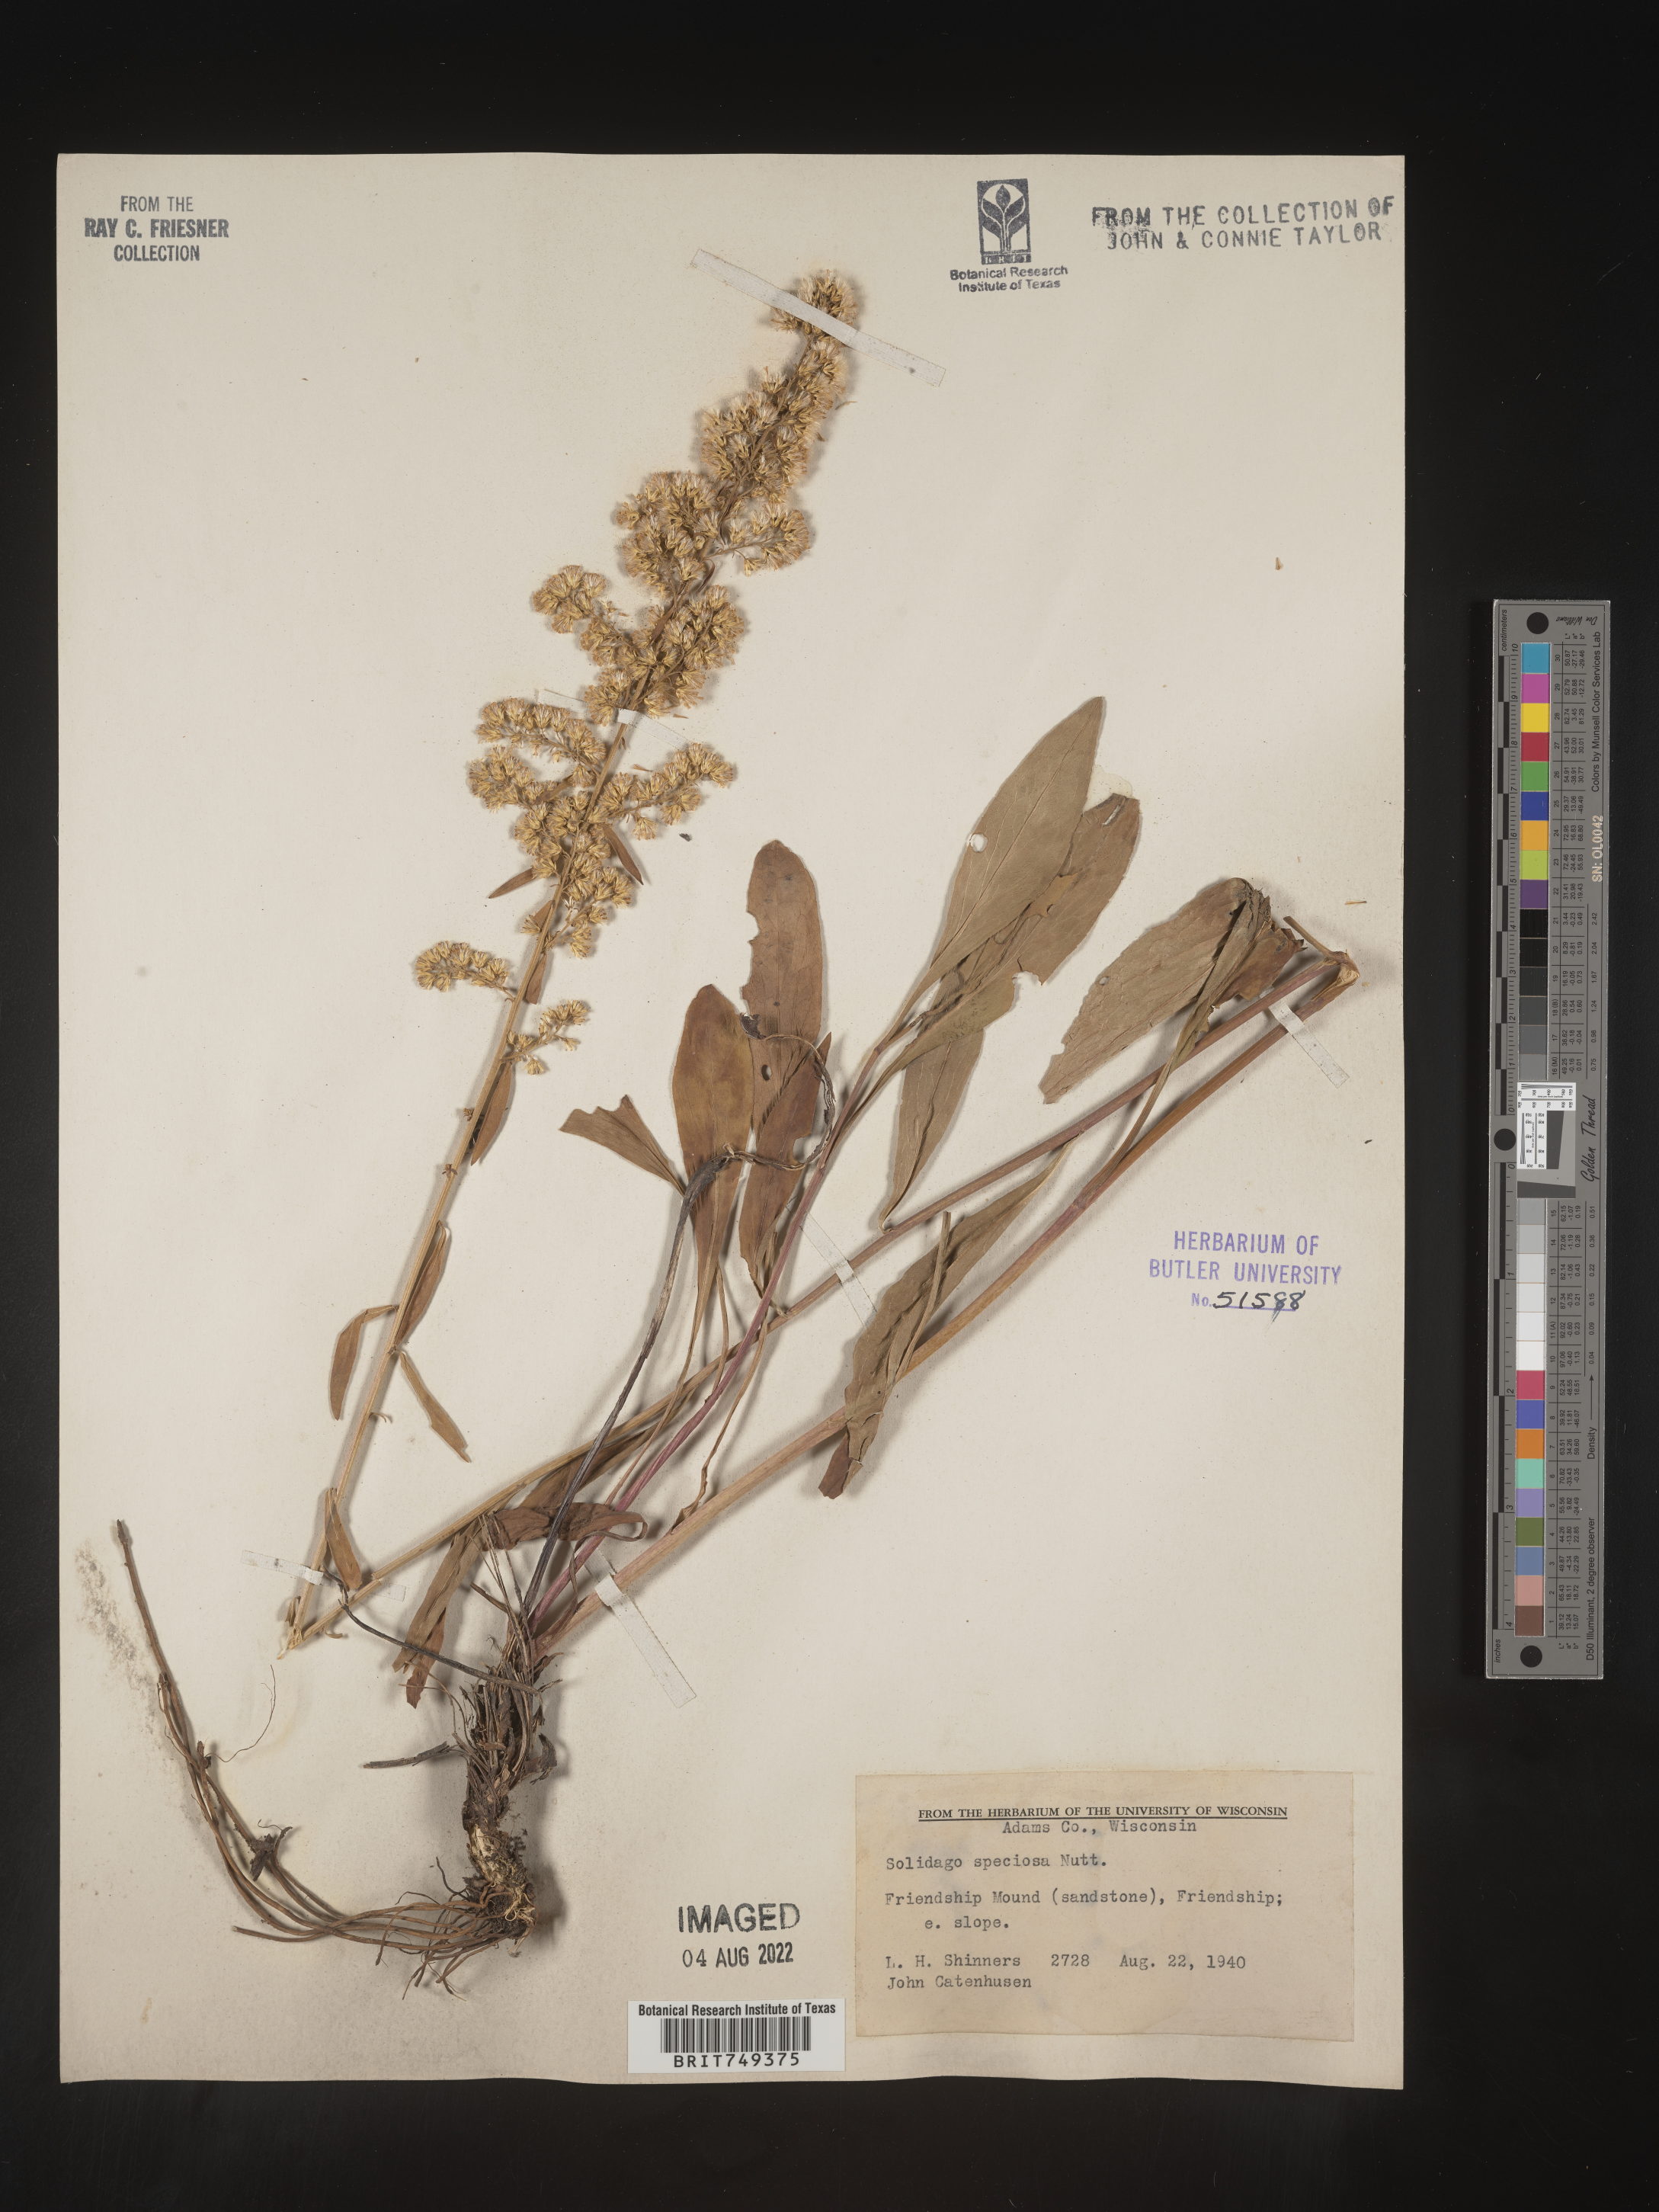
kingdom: Plantae
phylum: Tracheophyta
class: Magnoliopsida
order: Asterales
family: Asteraceae
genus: Solidago
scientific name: Solidago speciosa
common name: Showy goldenrod
